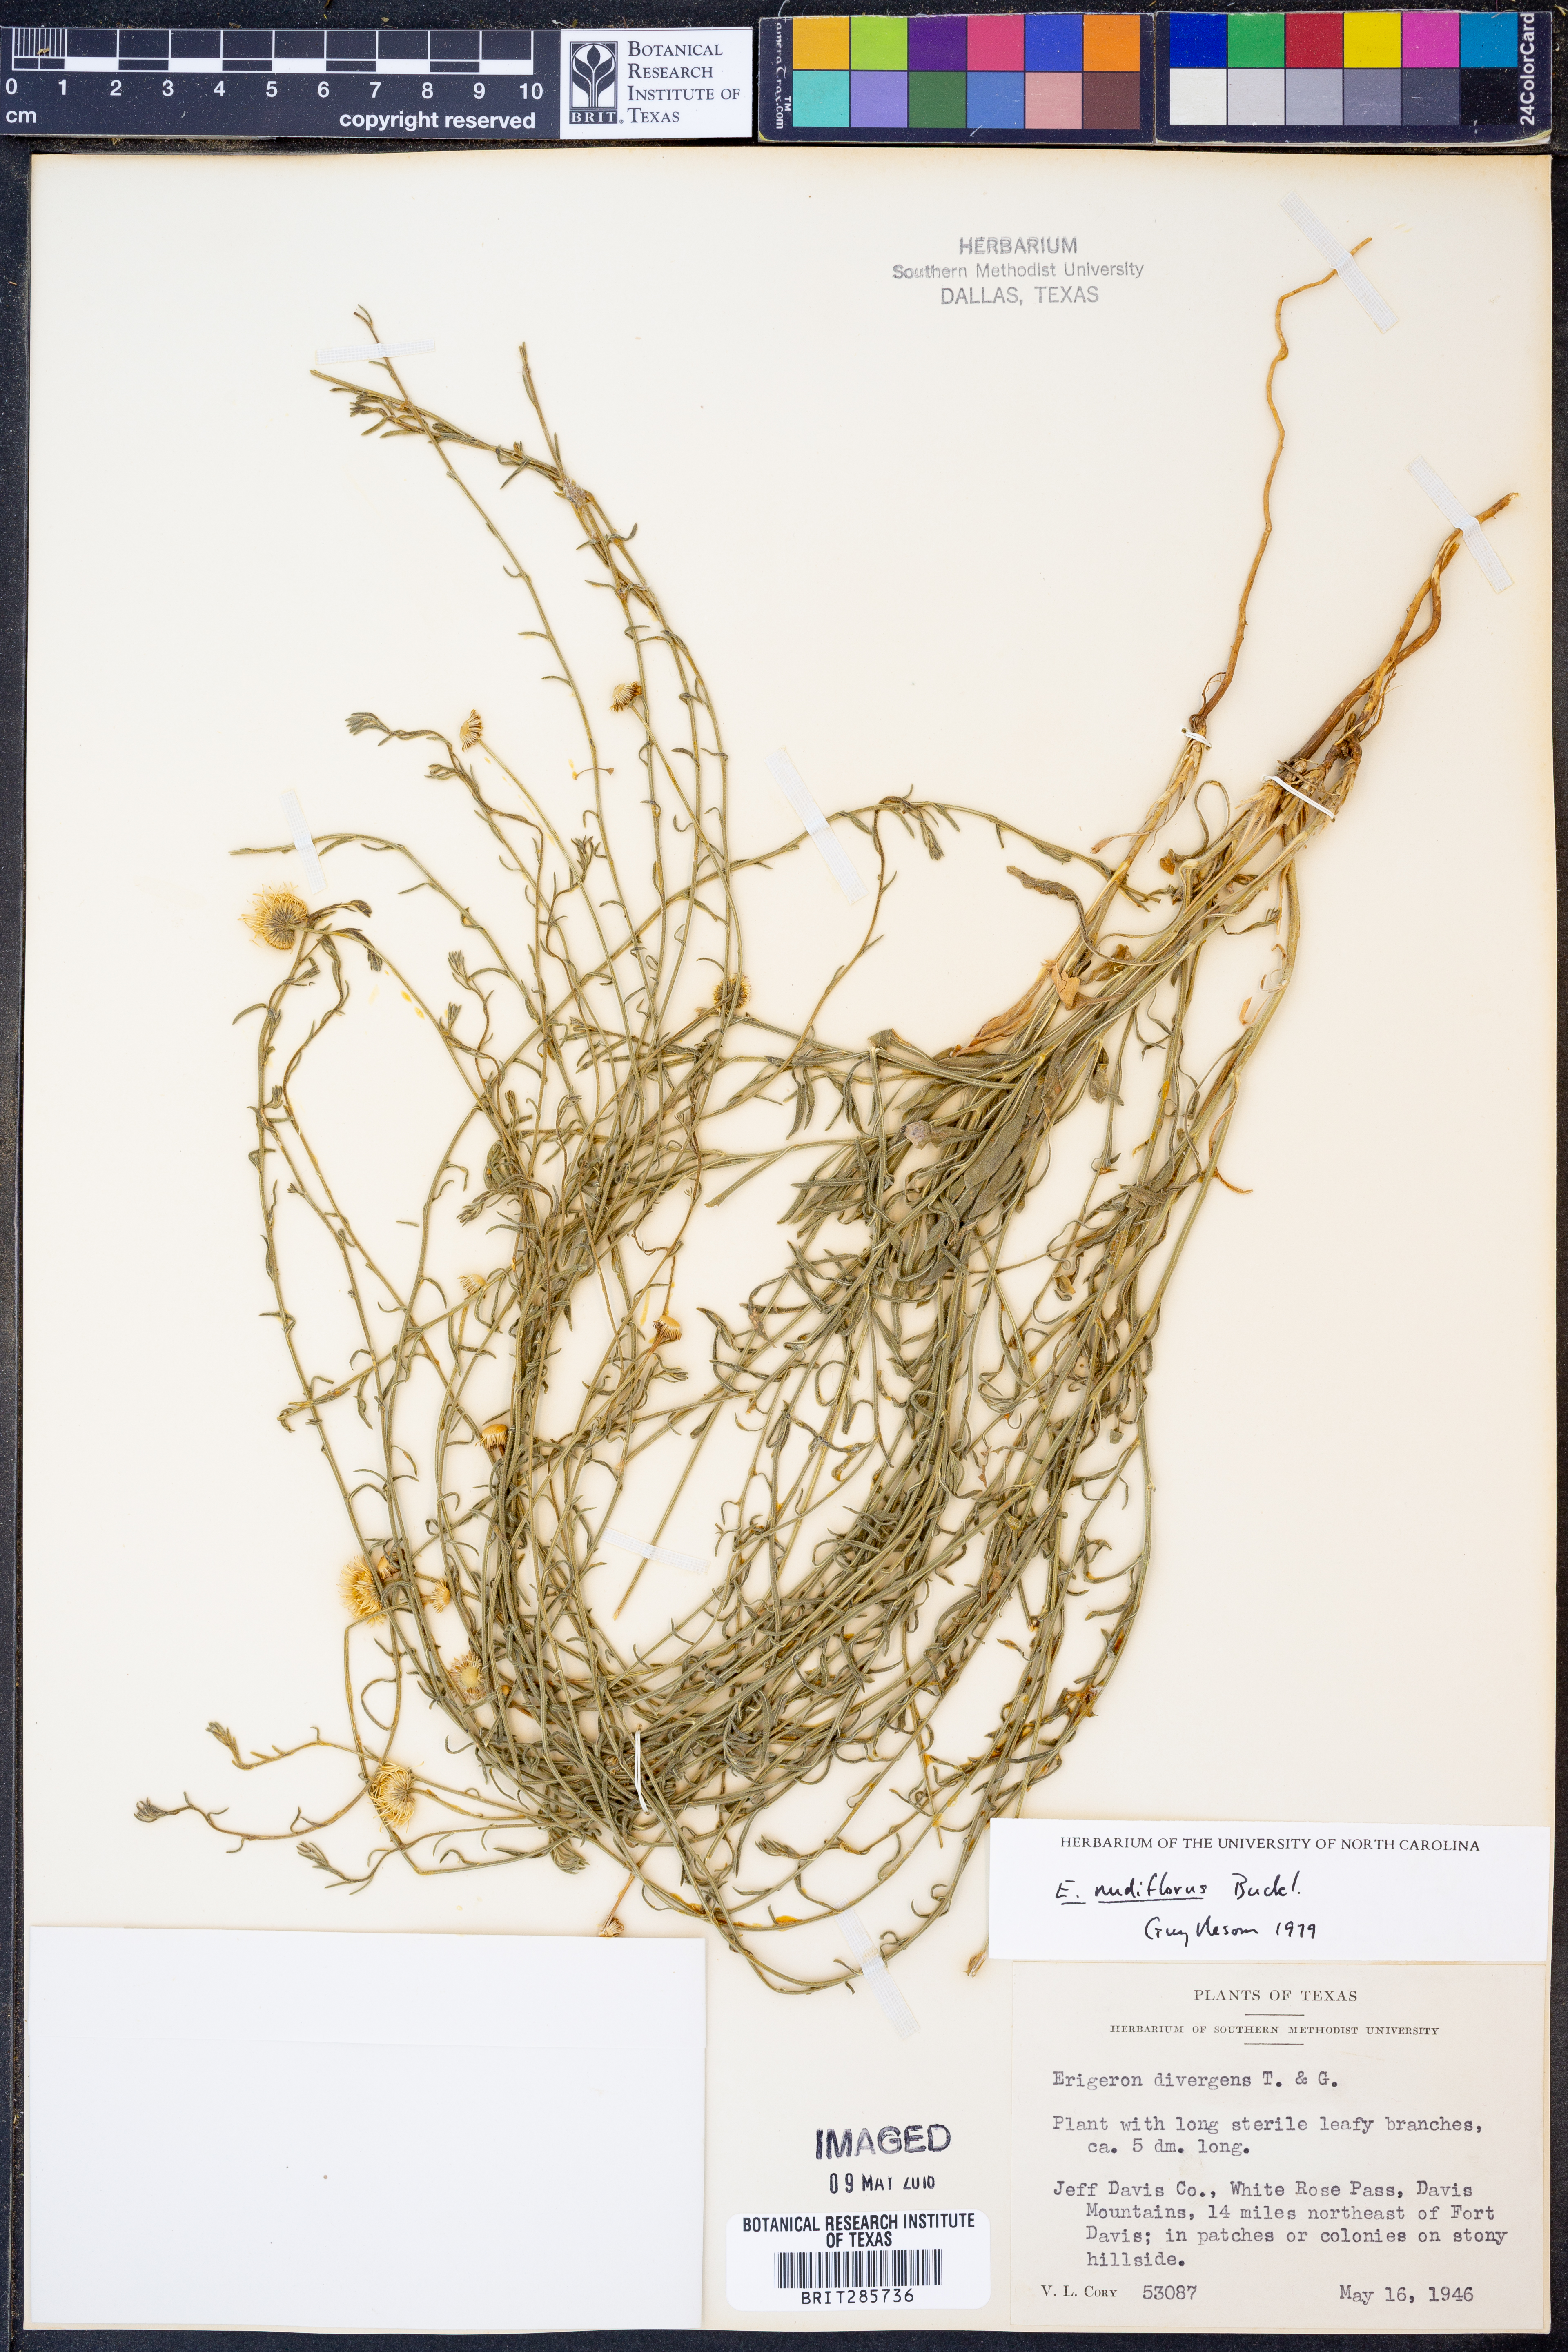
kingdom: Plantae
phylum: Tracheophyta
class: Magnoliopsida
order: Asterales
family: Asteraceae
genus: Erigeron
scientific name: Erigeron flagellaris
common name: Running fleabane
